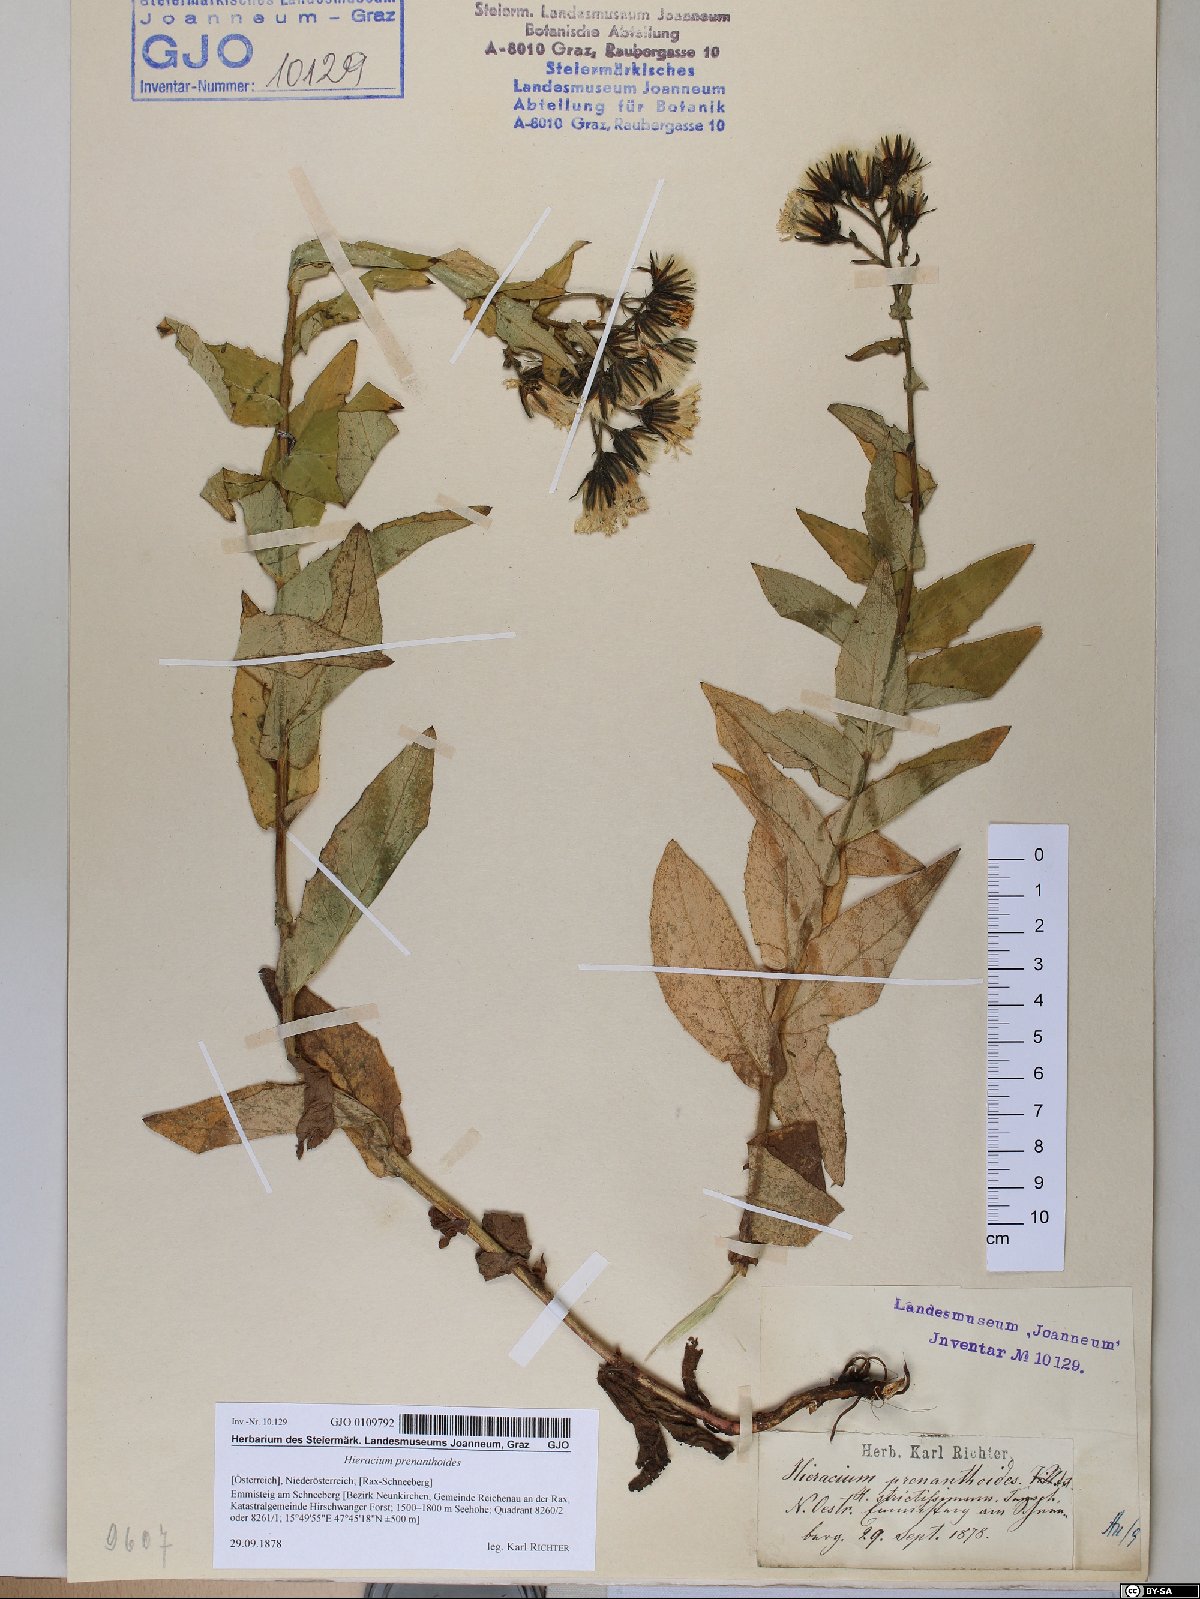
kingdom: Plantae
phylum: Tracheophyta
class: Magnoliopsida
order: Asterales
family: Asteraceae
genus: Hieracium
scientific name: Hieracium prenanthoides
